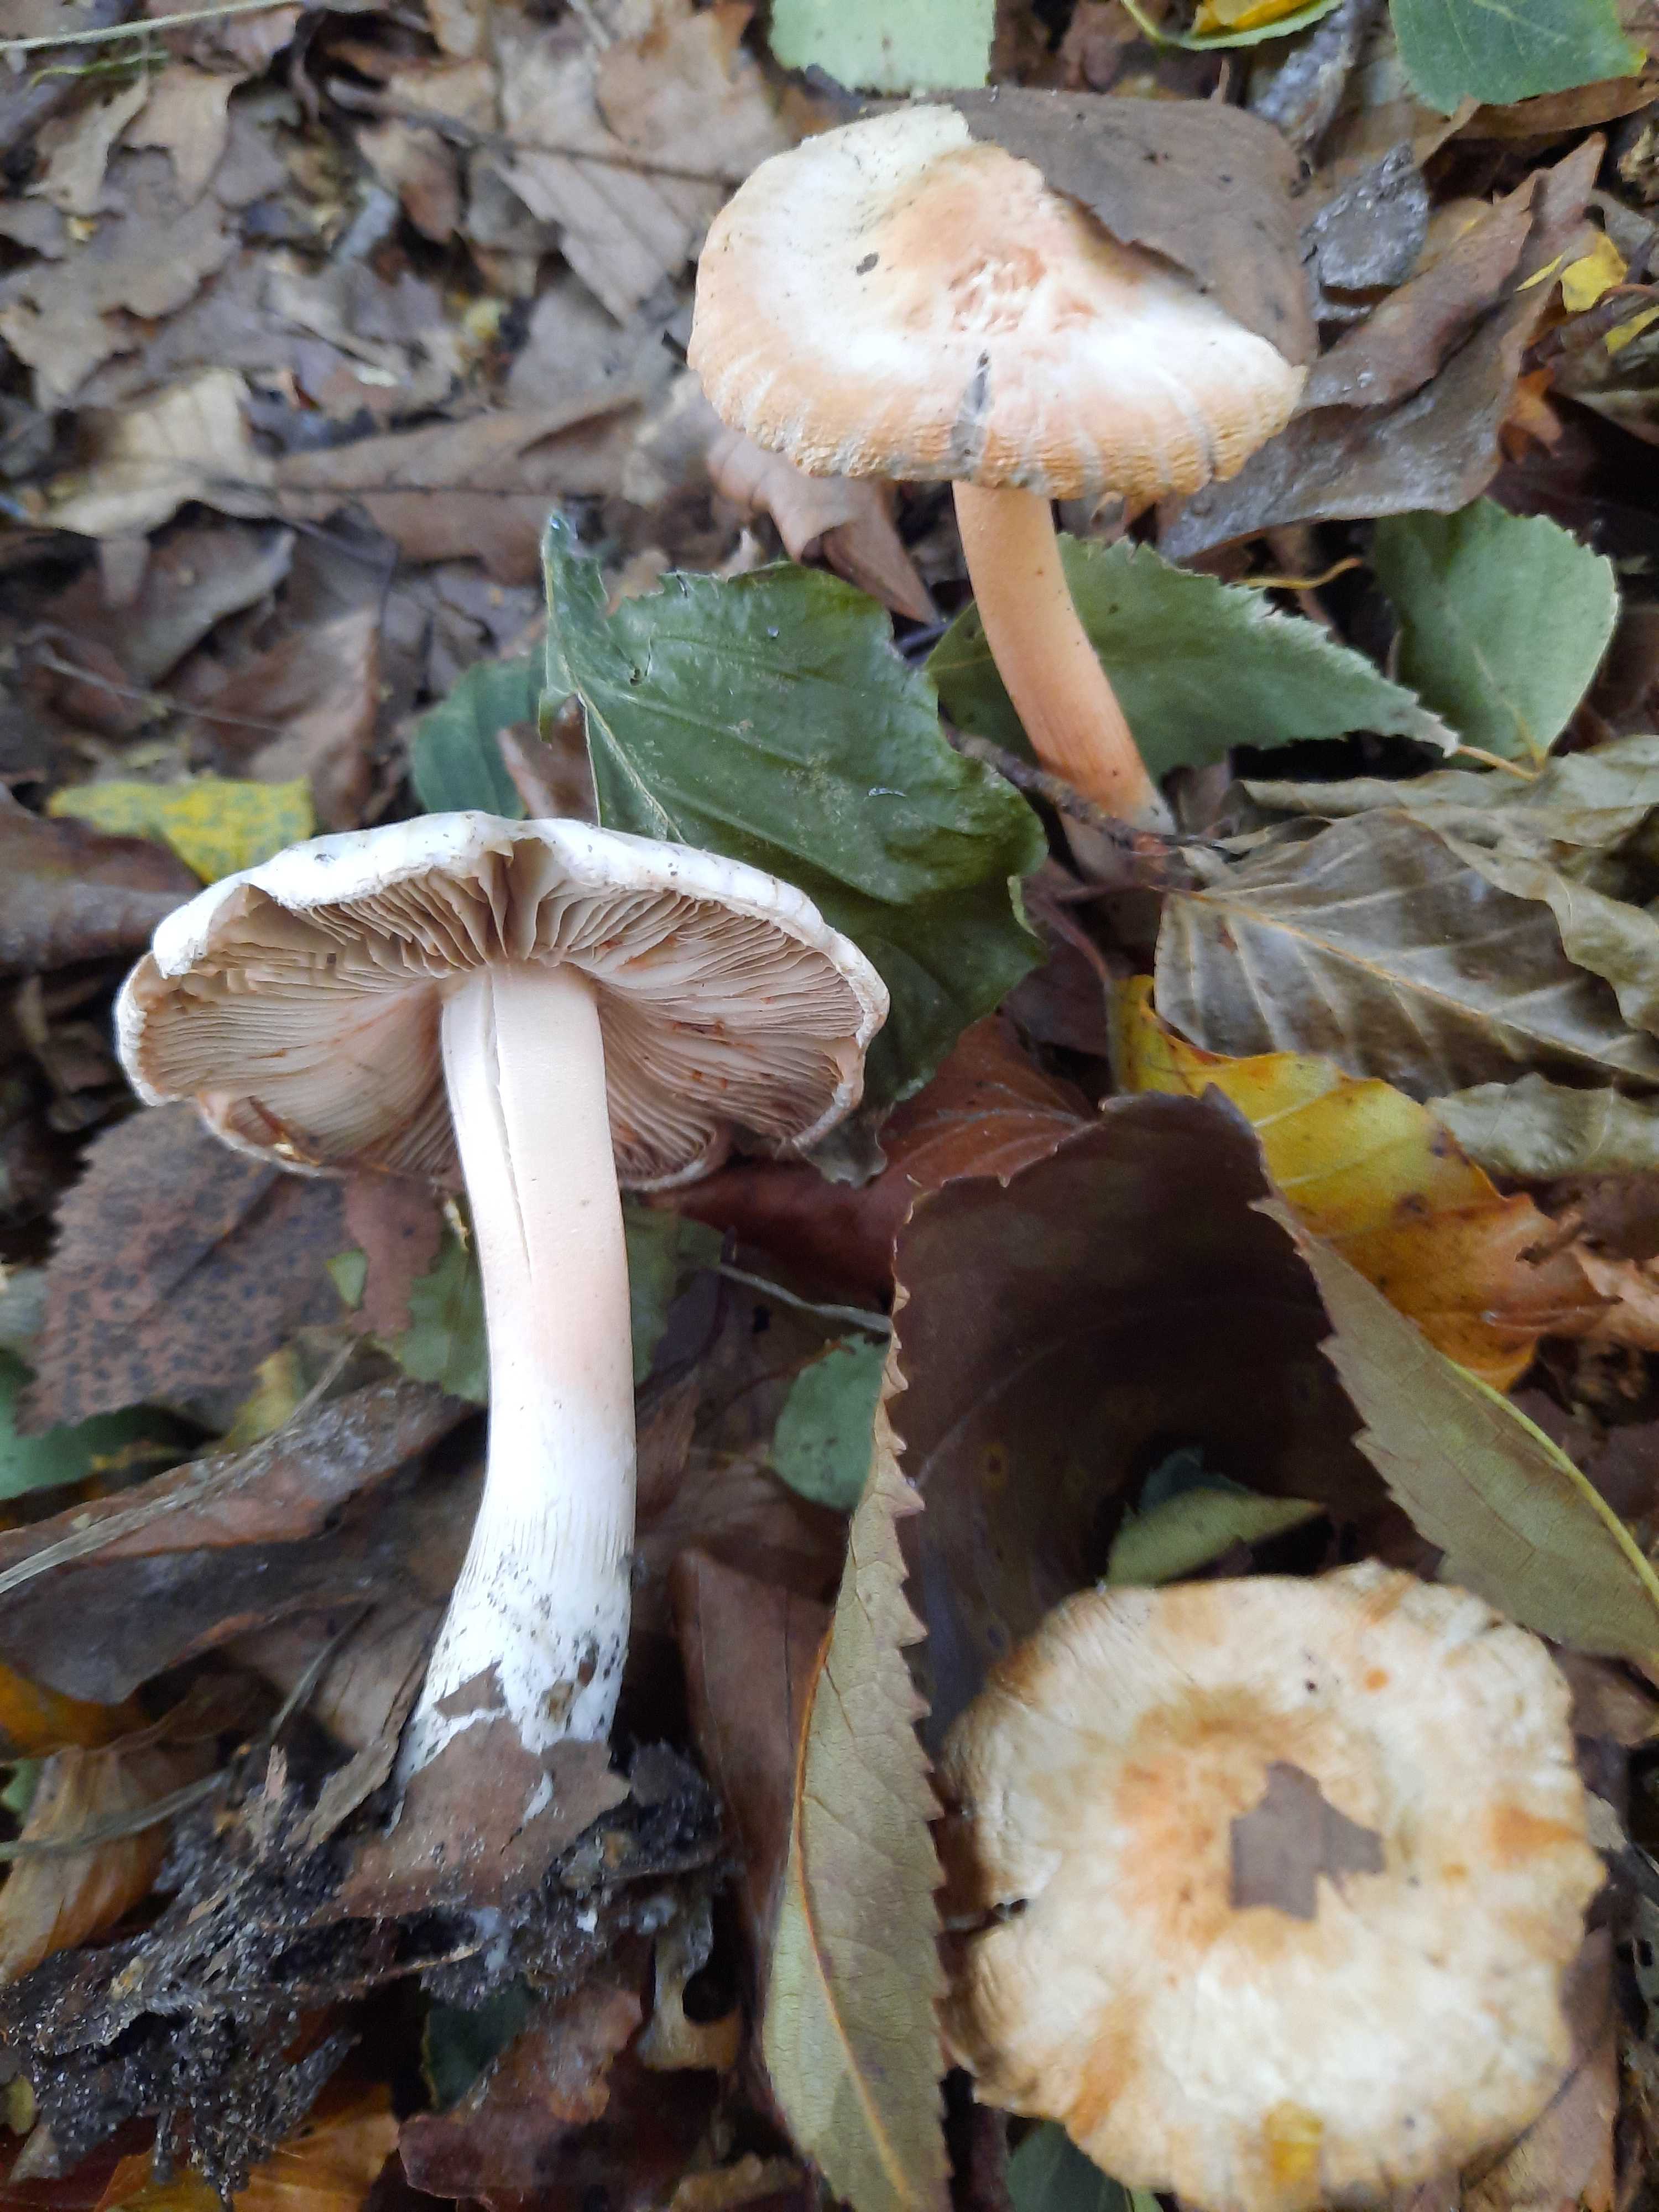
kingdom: Fungi
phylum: Basidiomycota
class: Agaricomycetes
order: Agaricales
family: Inocybaceae
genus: Inocybe
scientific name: Inocybe
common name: trævlhat
